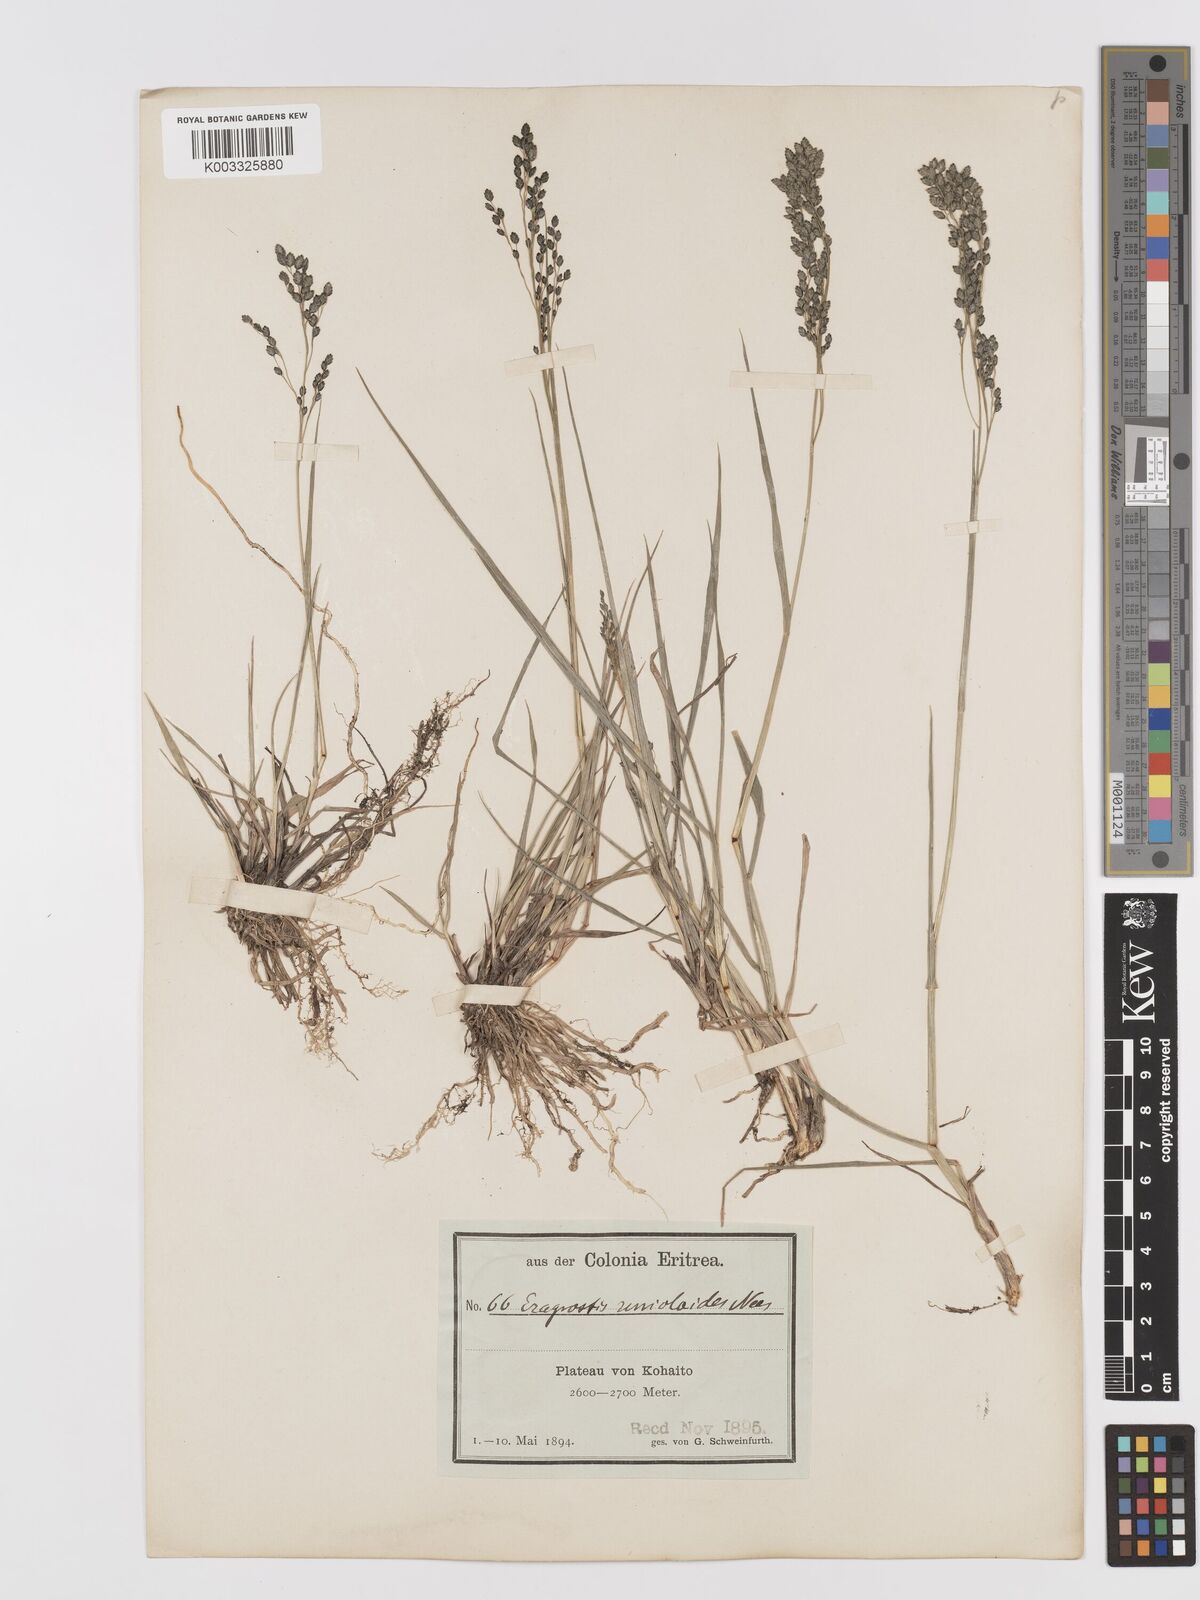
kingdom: Plantae
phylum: Tracheophyta
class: Liliopsida
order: Poales
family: Poaceae
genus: Eragrostis
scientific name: Eragrostis paniciformis
